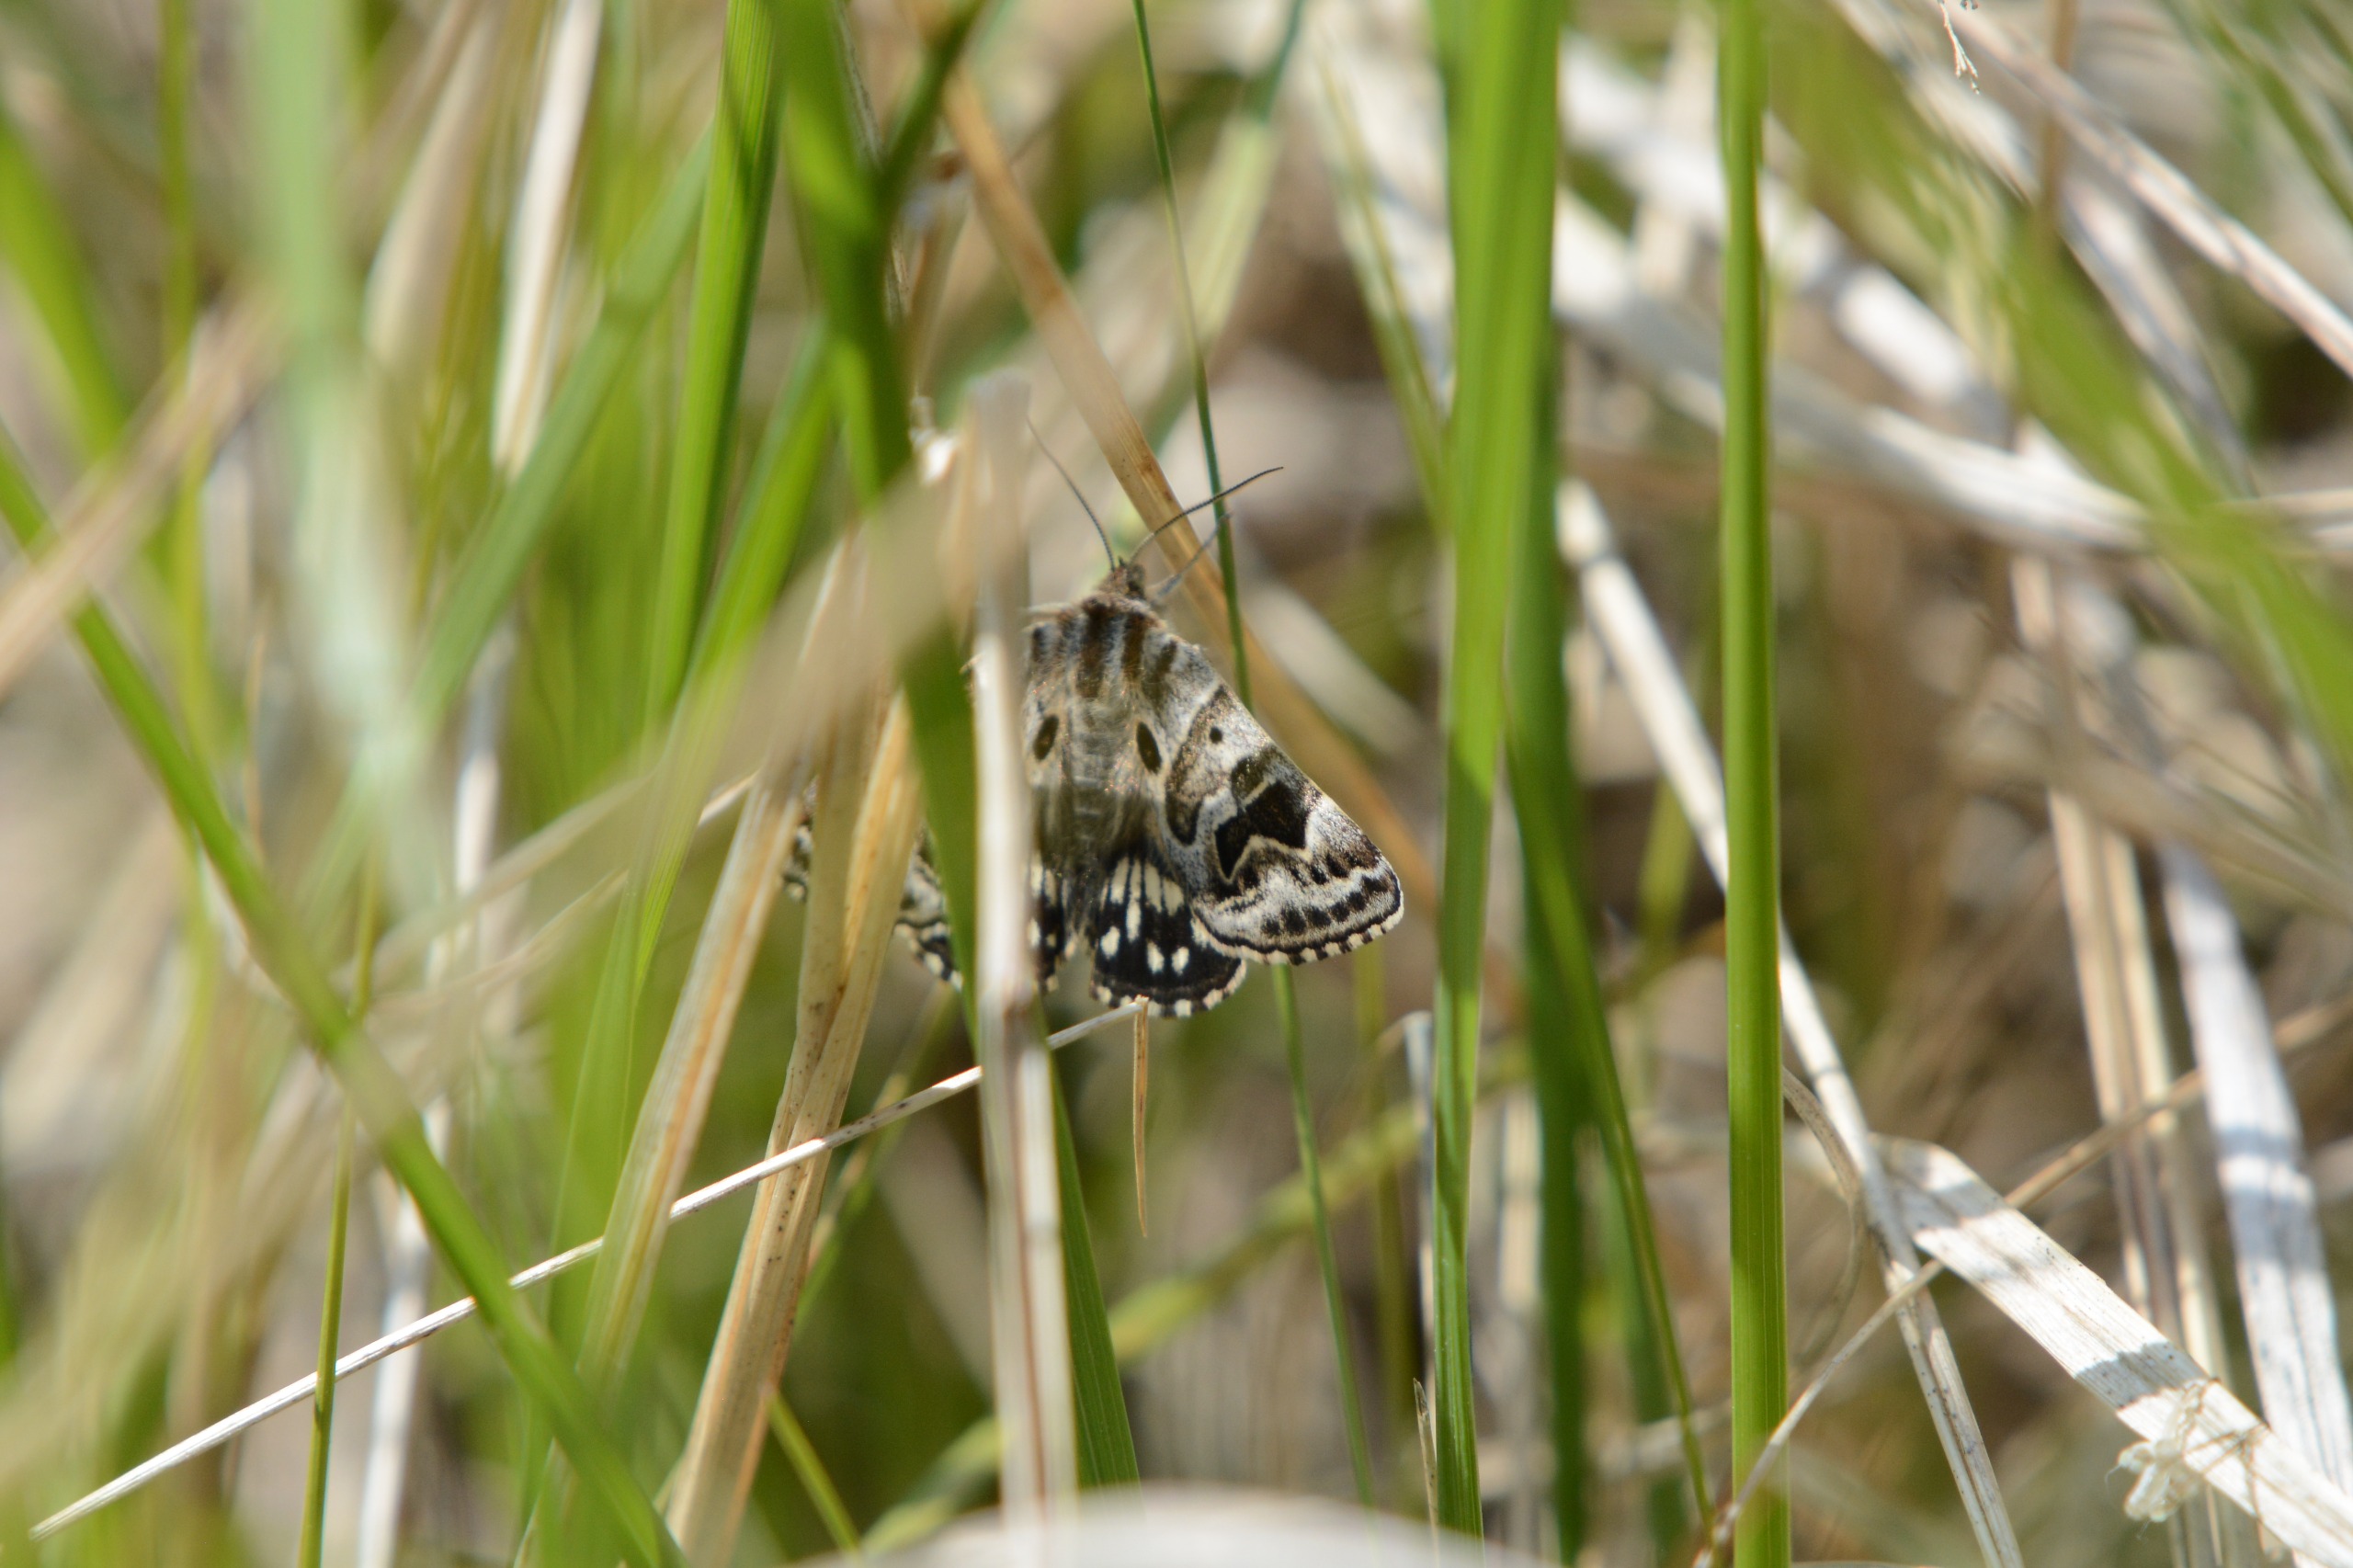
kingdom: Animalia
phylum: Arthropoda
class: Insecta
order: Lepidoptera
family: Erebidae
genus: Callistege
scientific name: Callistege mi
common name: Marmoreret kløverugle
